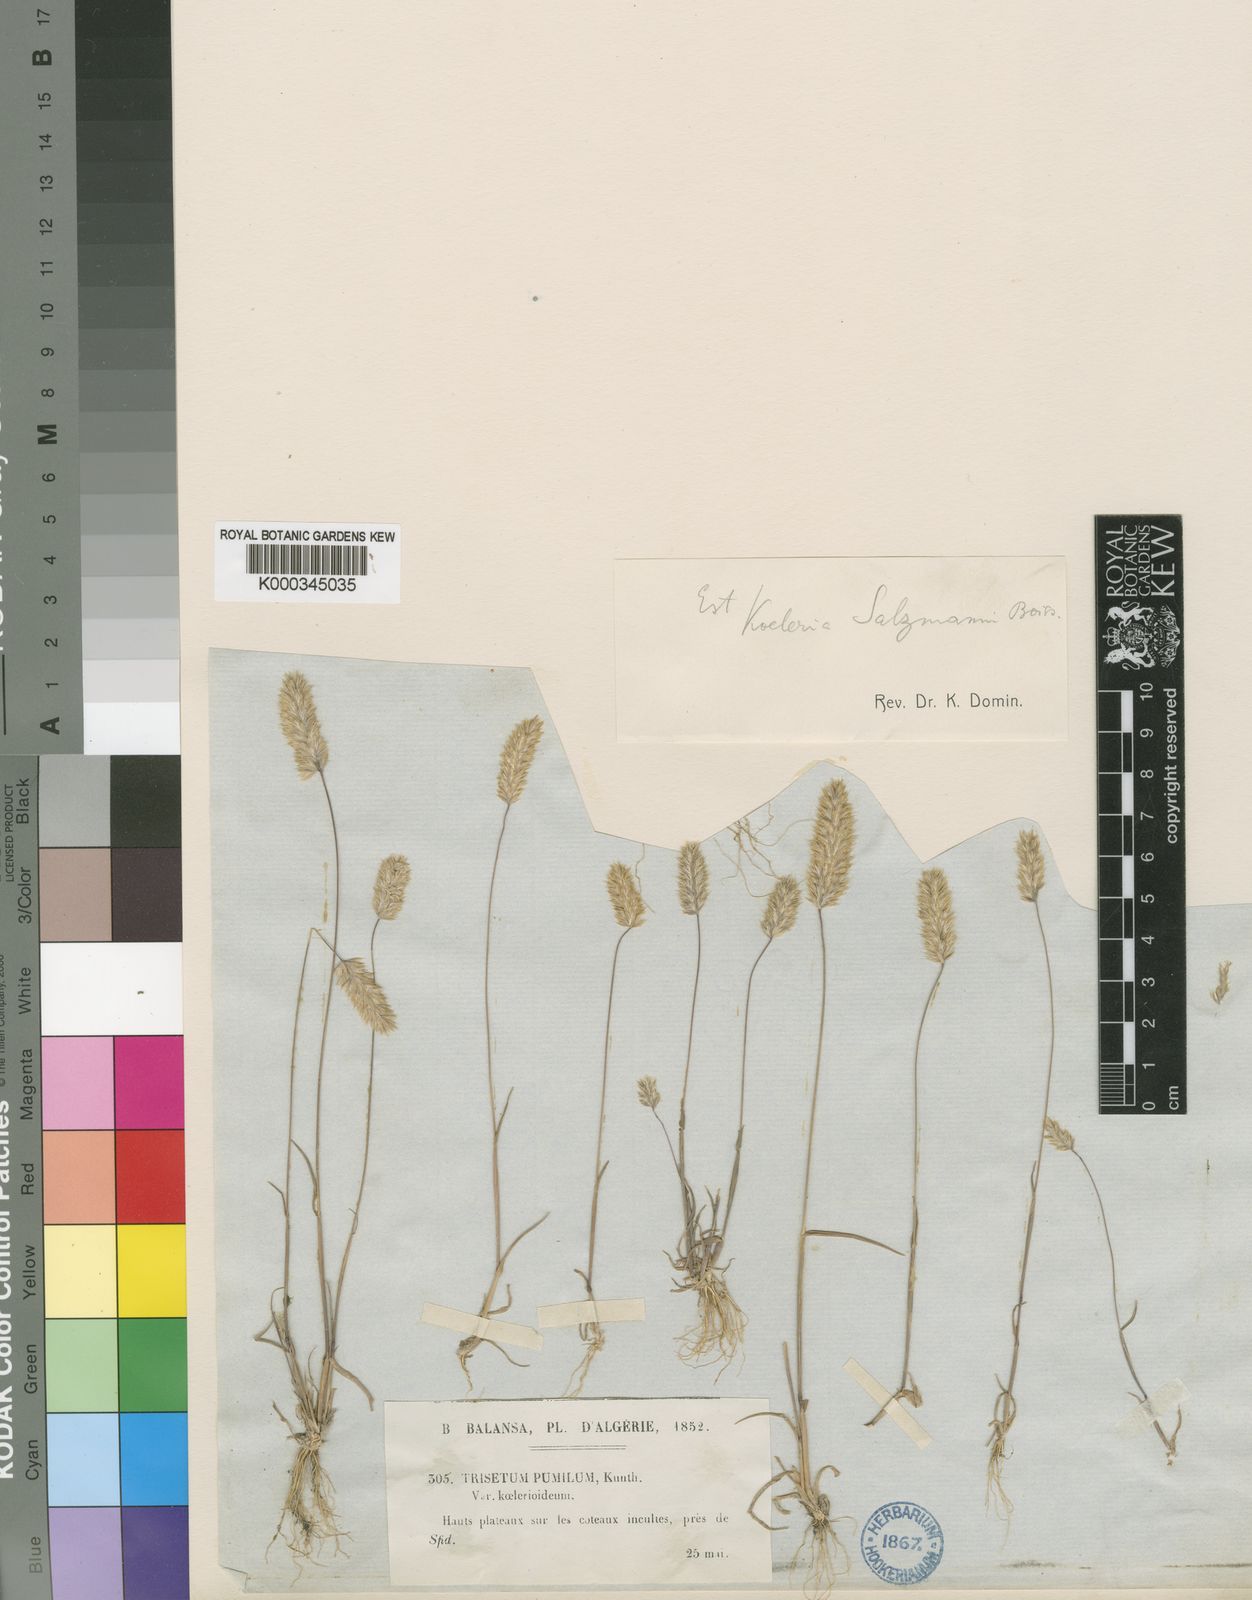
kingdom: Plantae
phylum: Tracheophyta
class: Liliopsida
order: Poales
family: Poaceae
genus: Rostraria
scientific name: Rostraria salzmannii
